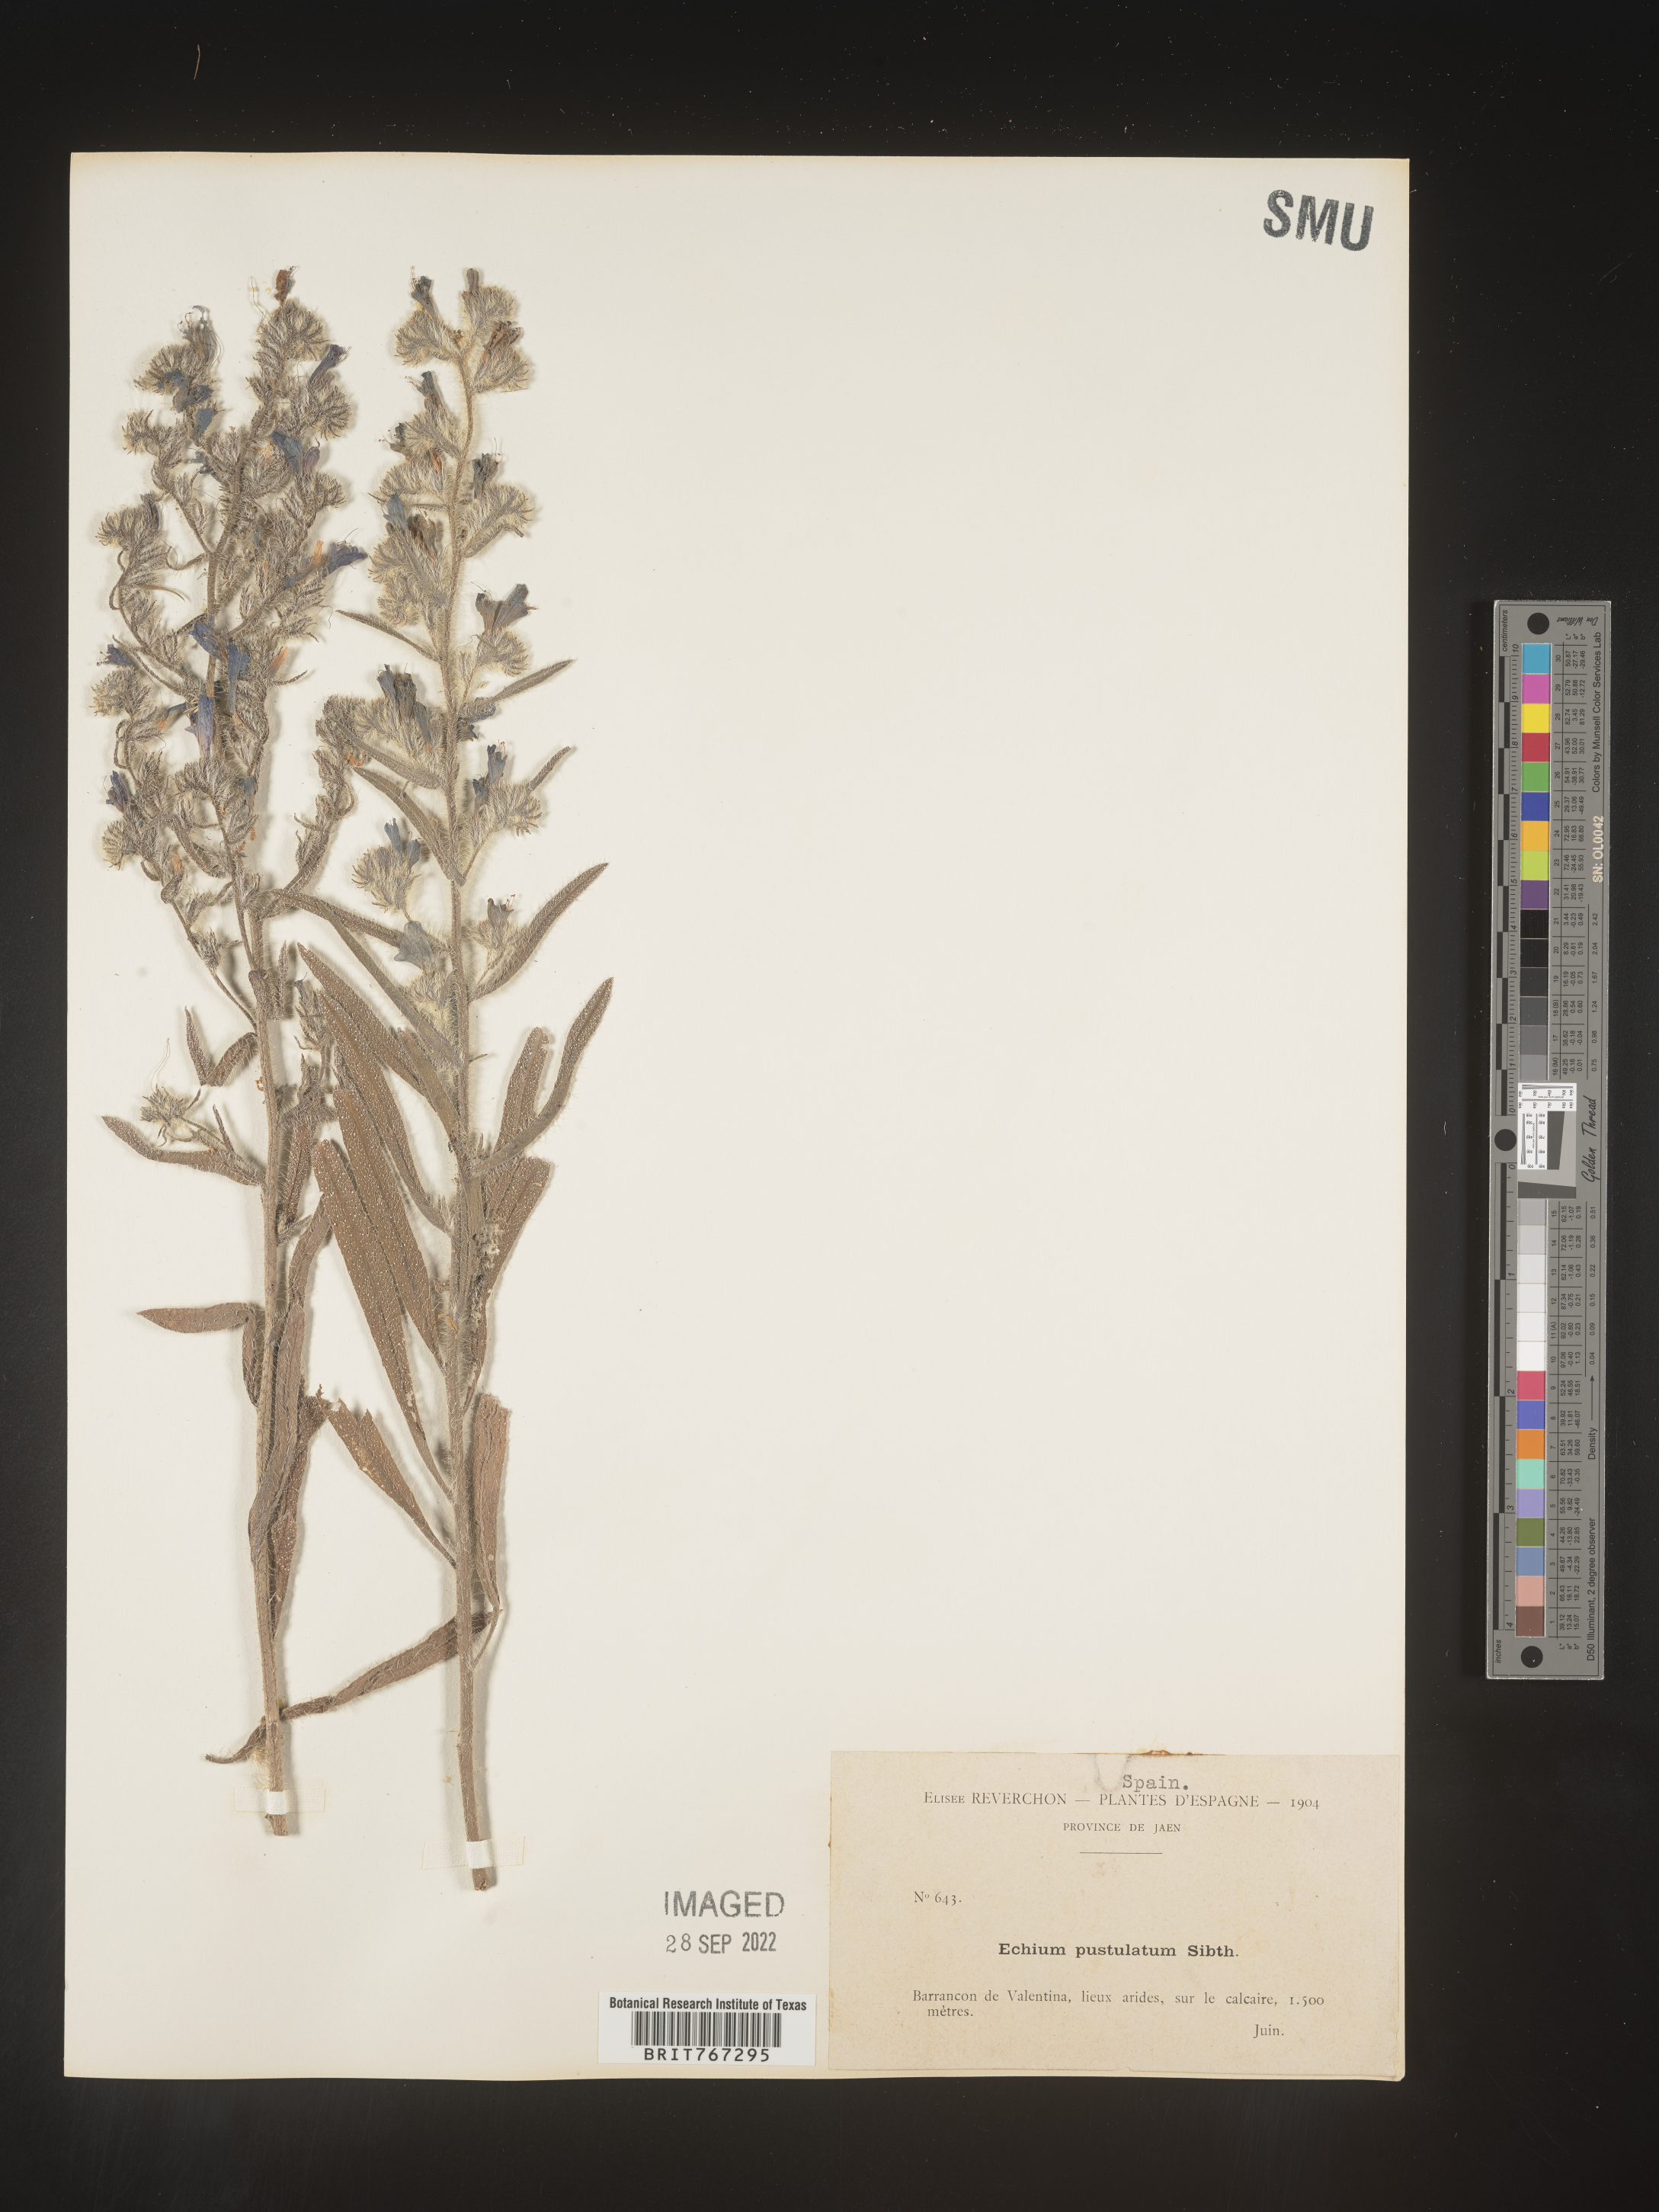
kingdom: Plantae
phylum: Tracheophyta
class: Magnoliopsida
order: Boraginales
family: Boraginaceae
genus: Echium
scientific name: Echium
